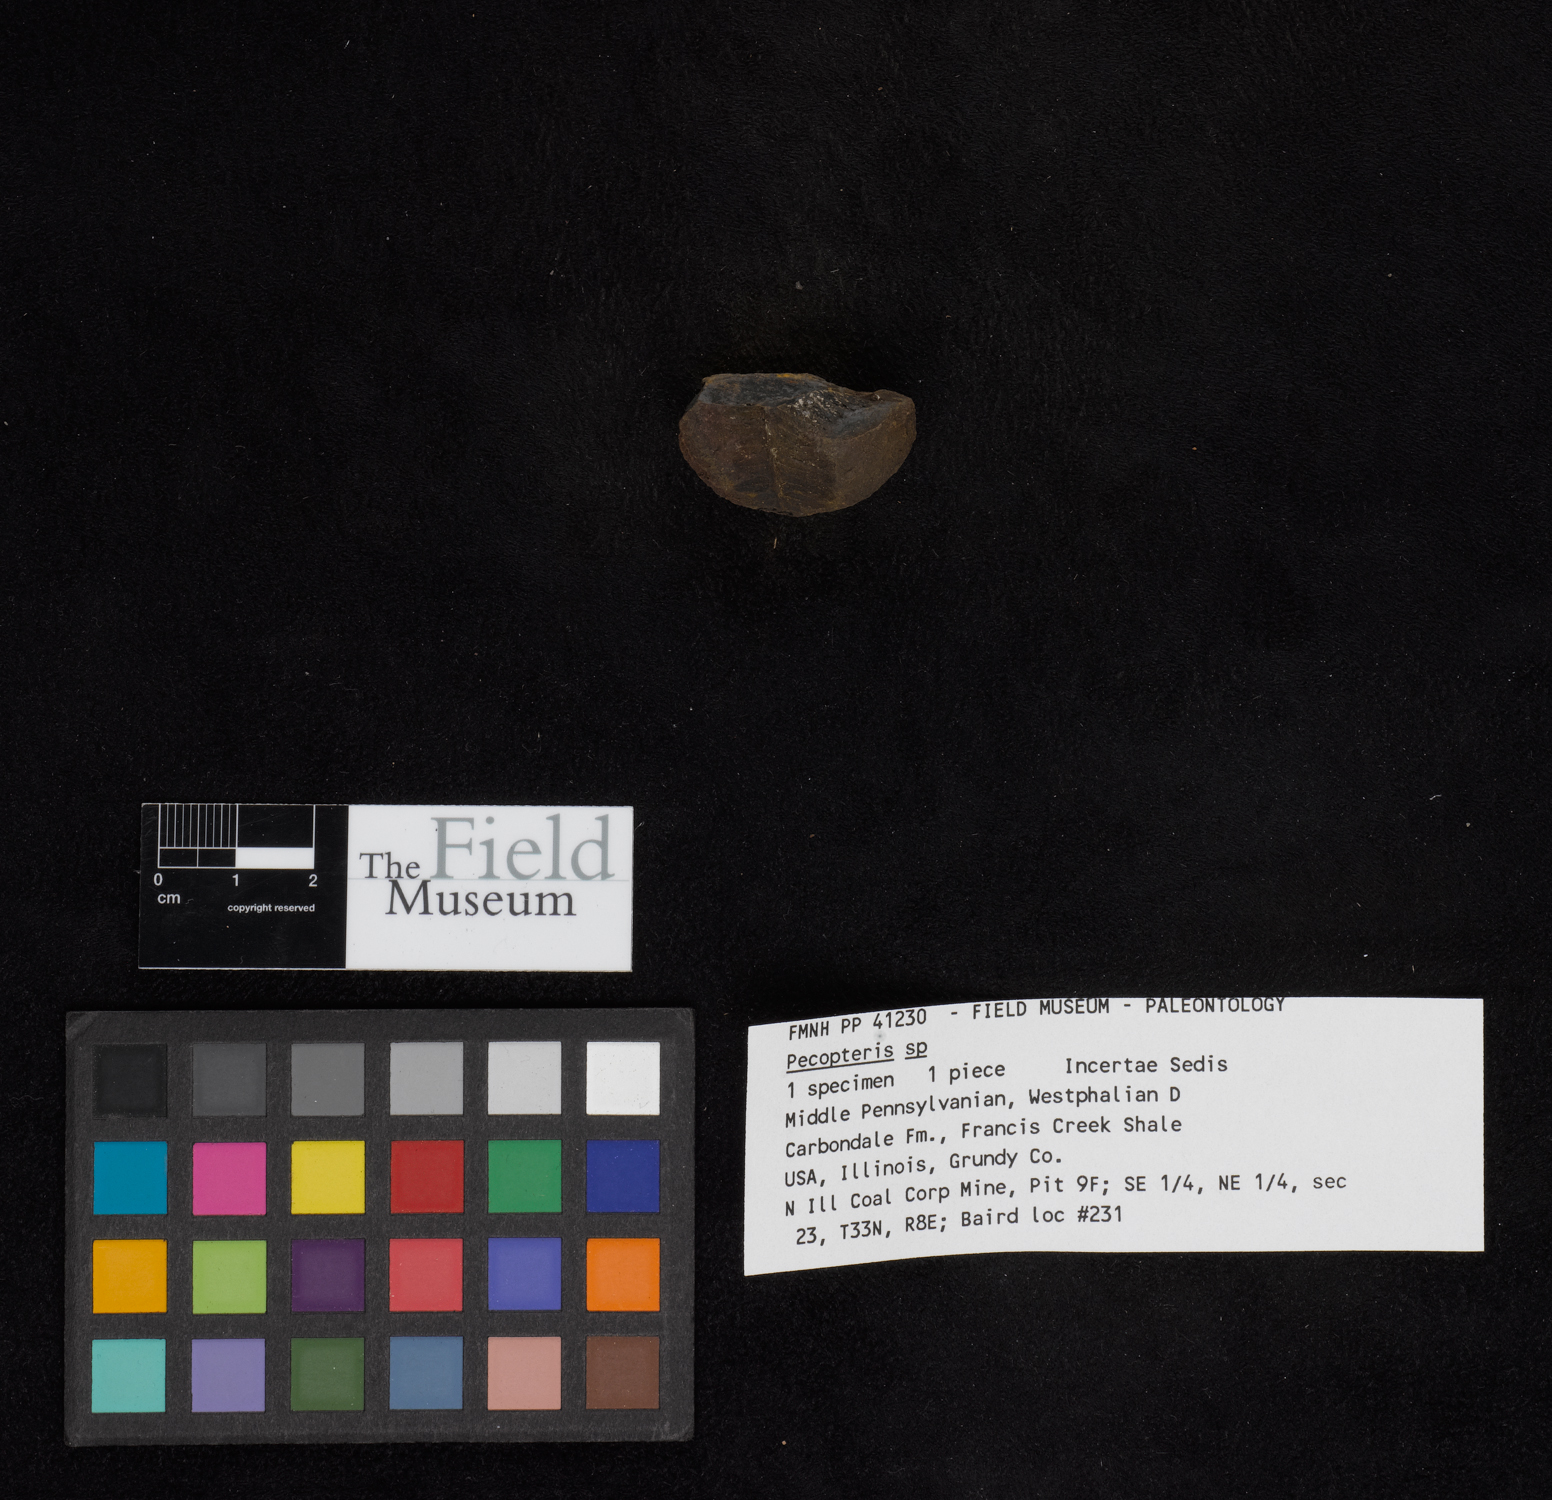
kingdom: Plantae
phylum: Tracheophyta
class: Polypodiopsida
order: Marattiales
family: Asterothecaceae
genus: Pecopteris
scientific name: Pecopteris
